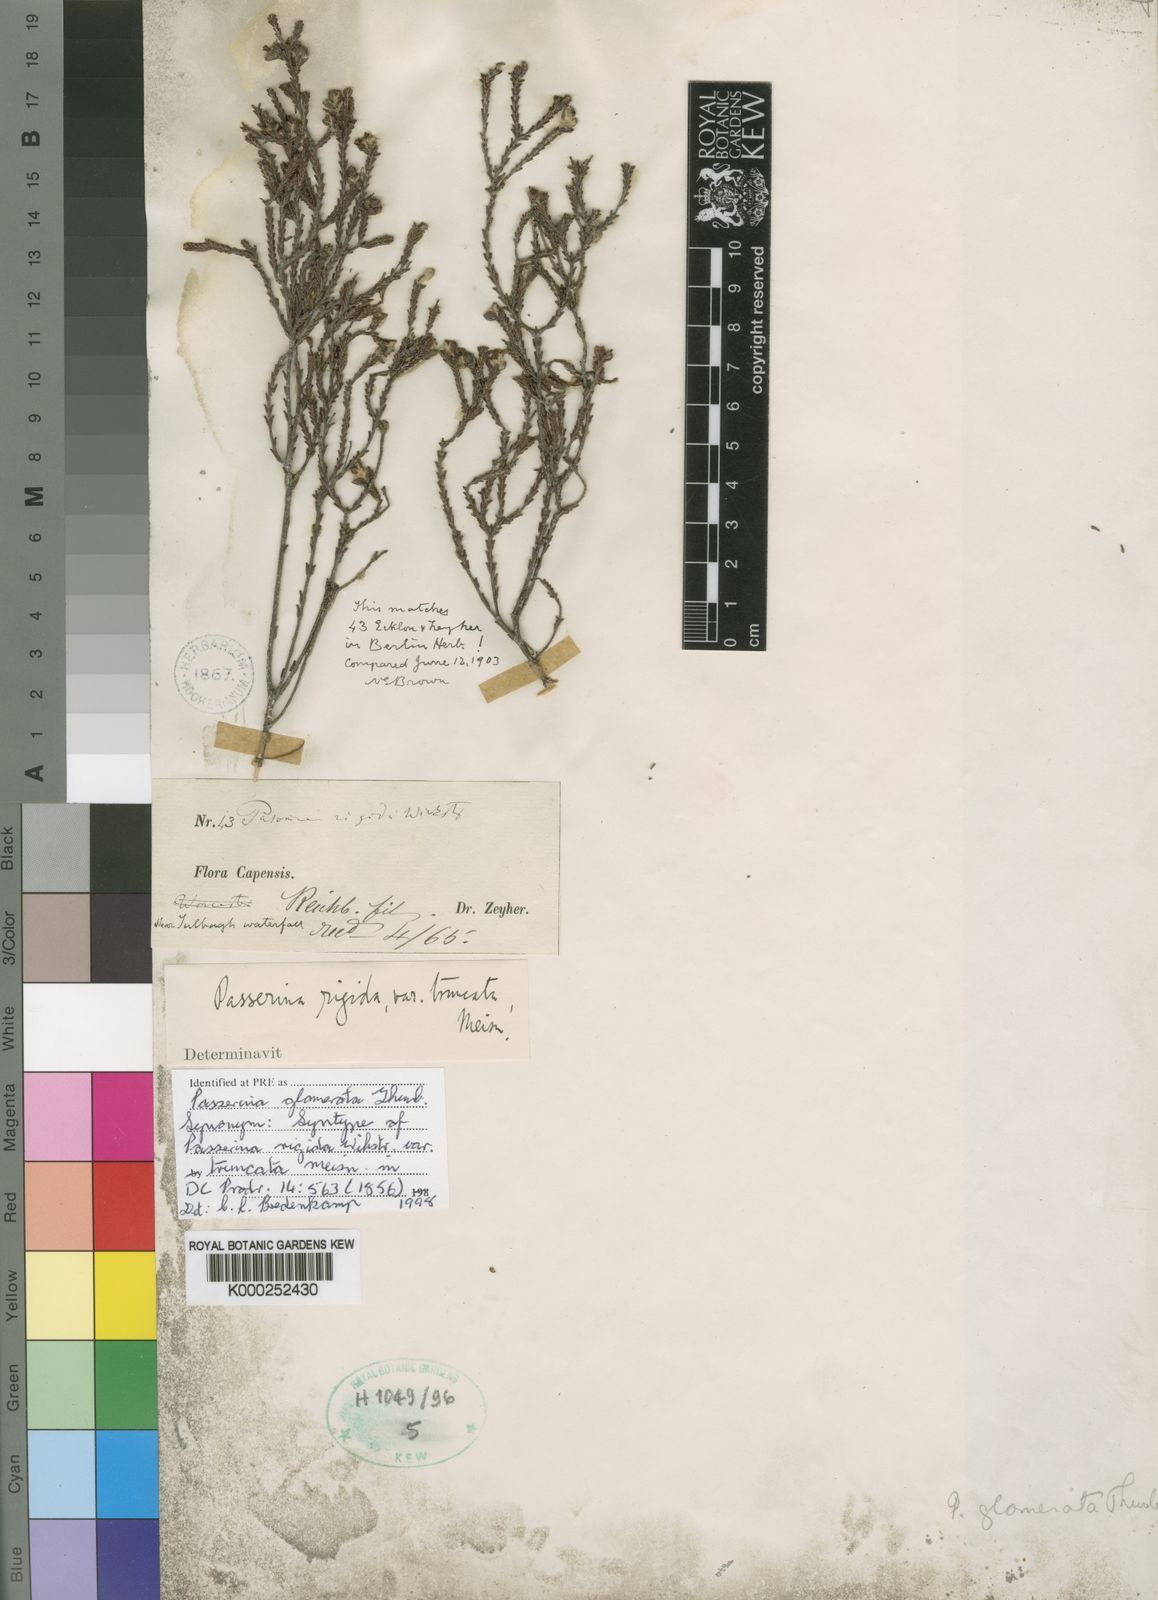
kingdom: Plantae
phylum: Tracheophyta
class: Magnoliopsida
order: Malvales
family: Thymelaeaceae
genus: Passerina
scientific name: Passerina
